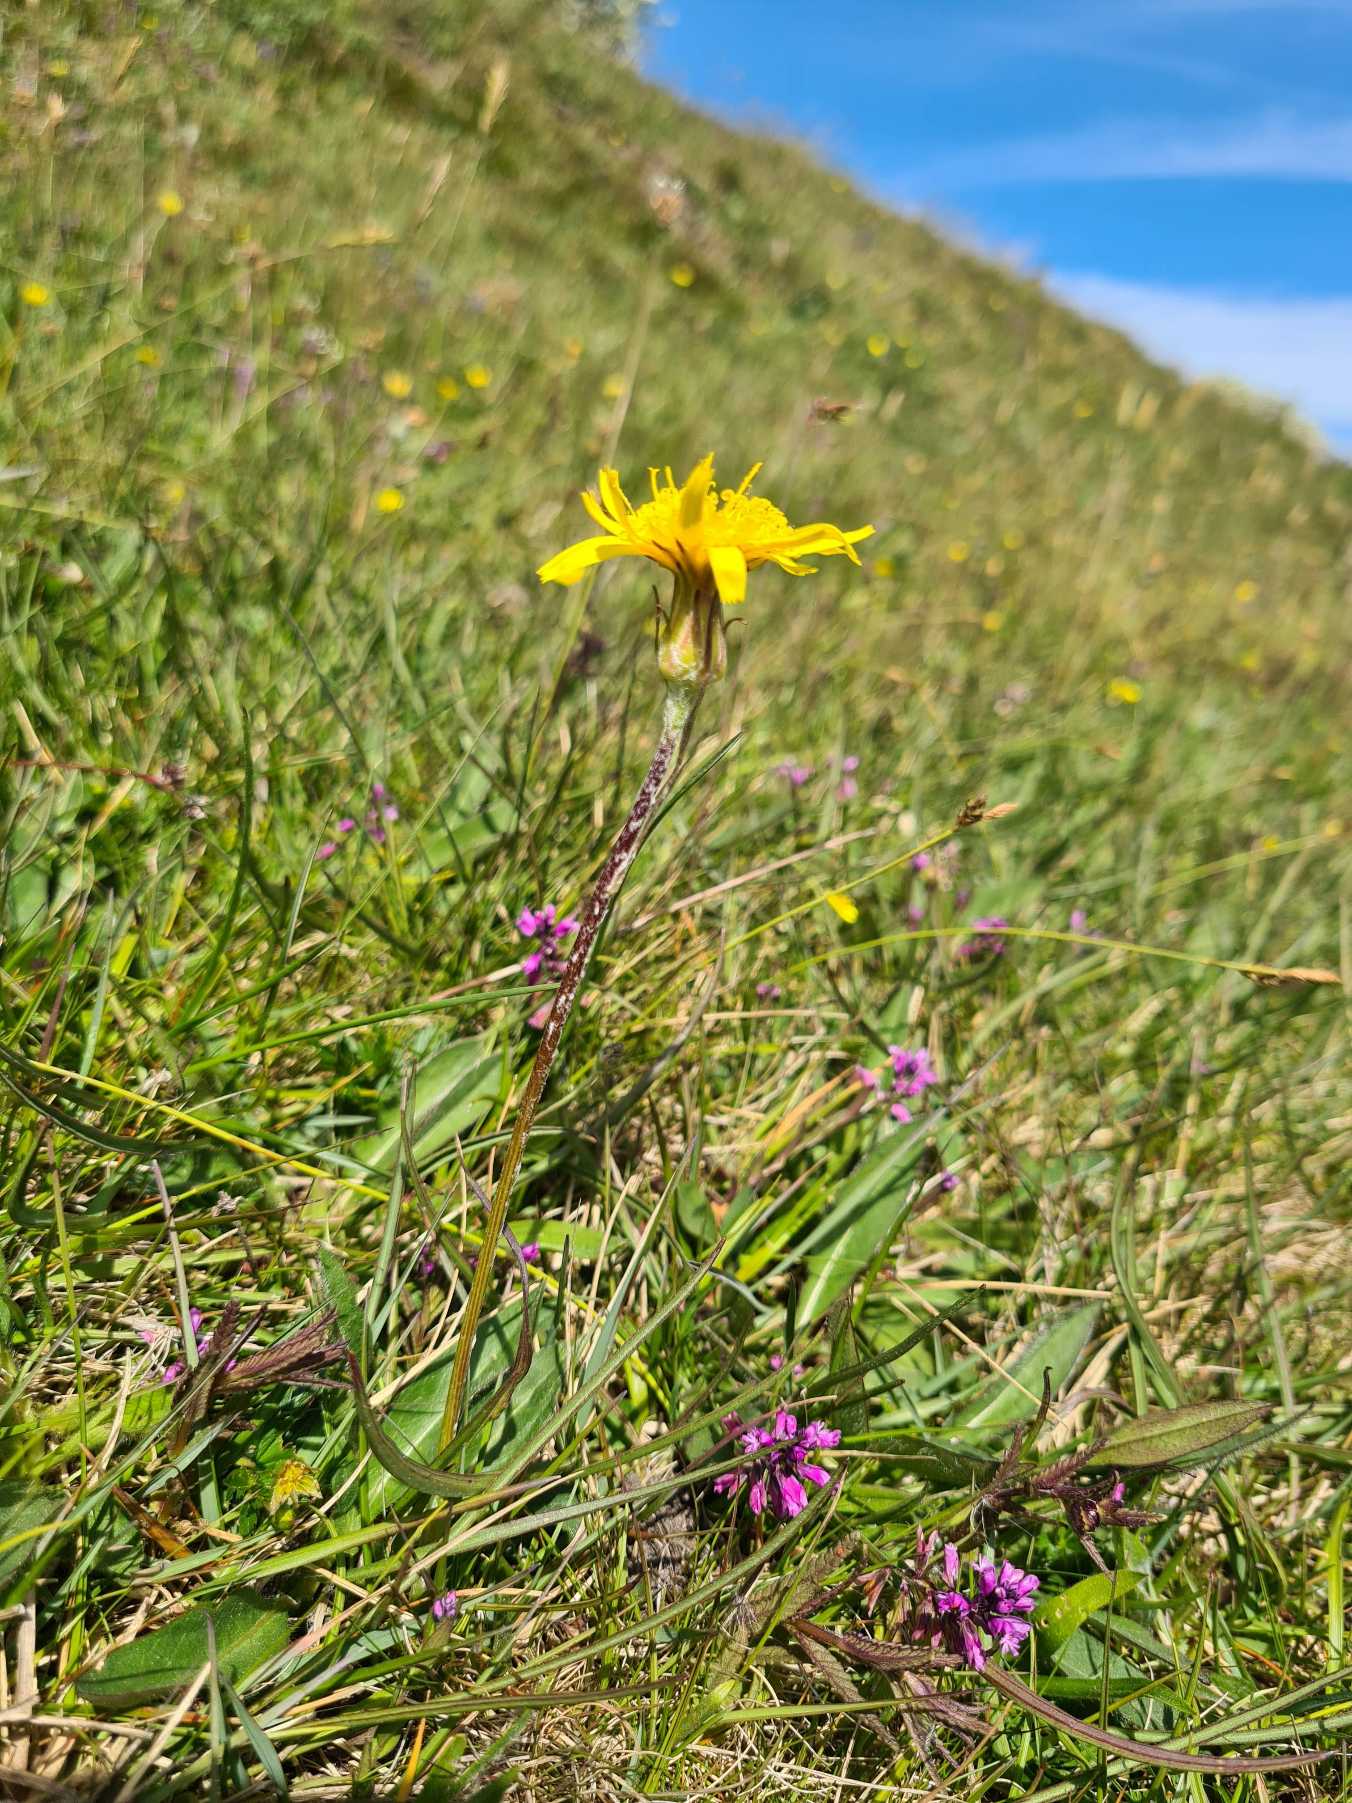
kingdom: Plantae
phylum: Tracheophyta
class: Magnoliopsida
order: Asterales
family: Asteraceae
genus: Scorzonera
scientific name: Scorzonera humilis
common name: Lav skorsoner
